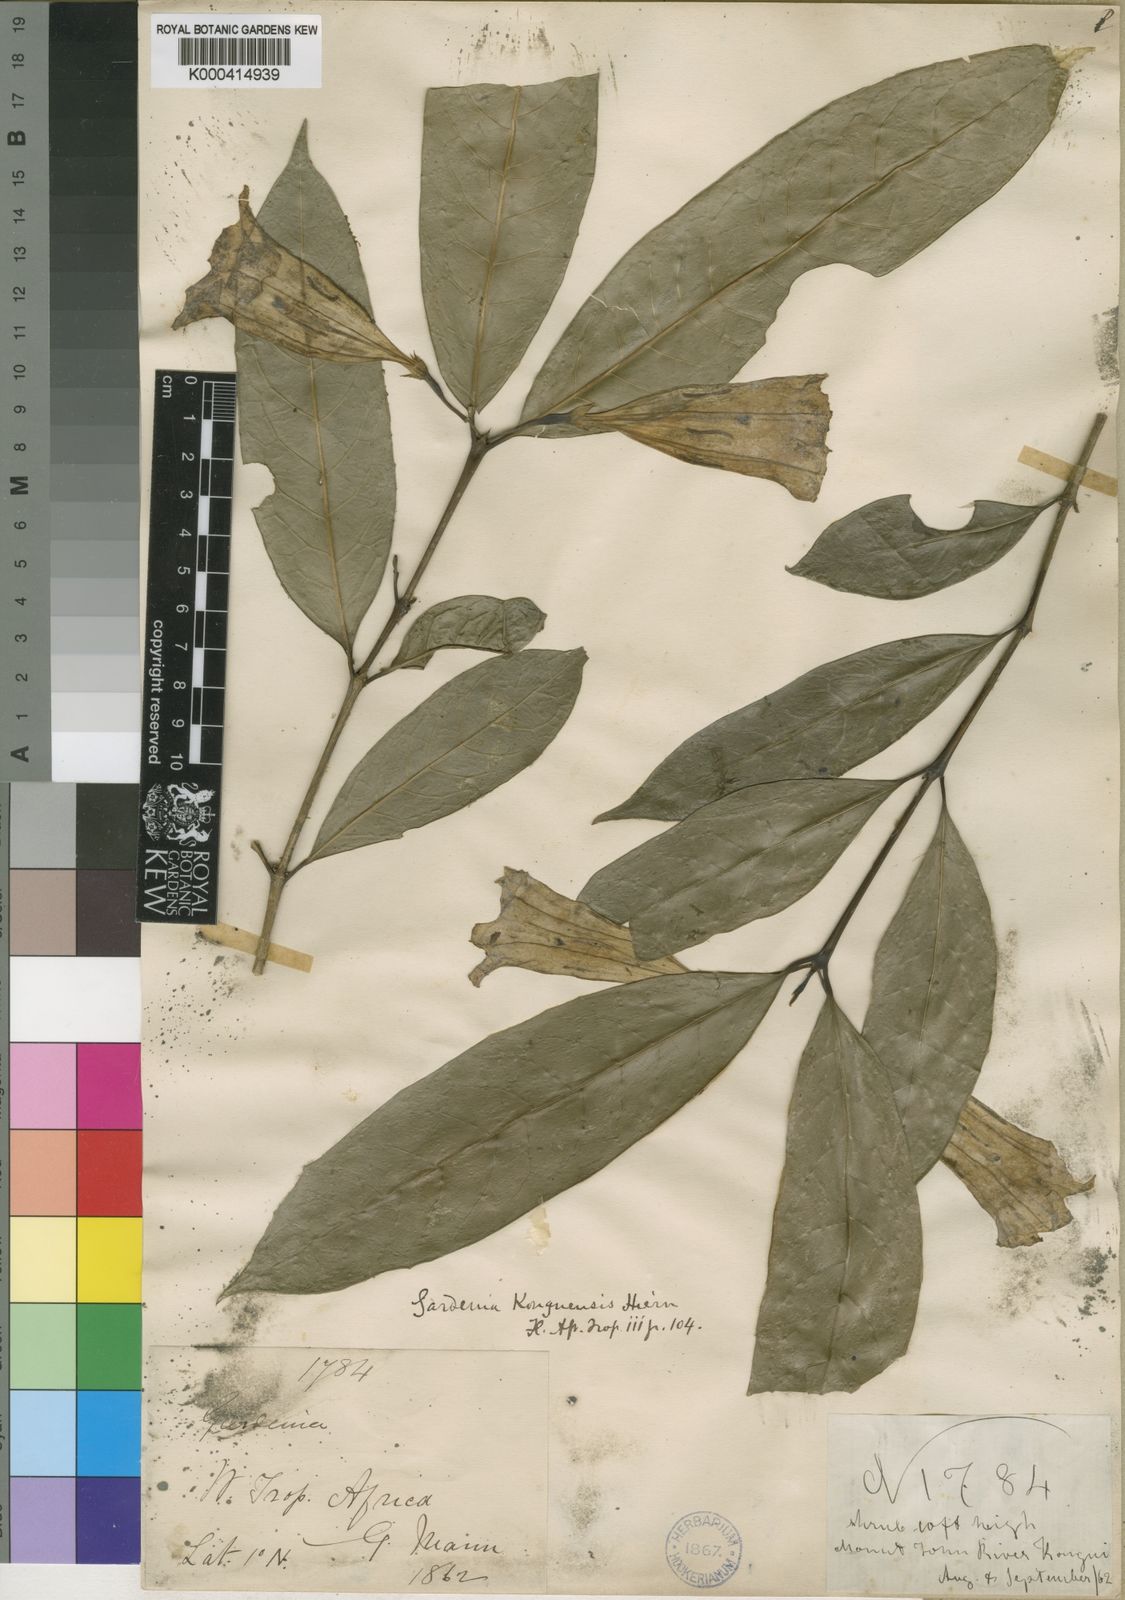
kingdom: Plantae
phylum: Tracheophyta
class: Magnoliopsida
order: Gentianales
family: Rubiaceae
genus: Didymosalpinx
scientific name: Didymosalpinx konguensis
